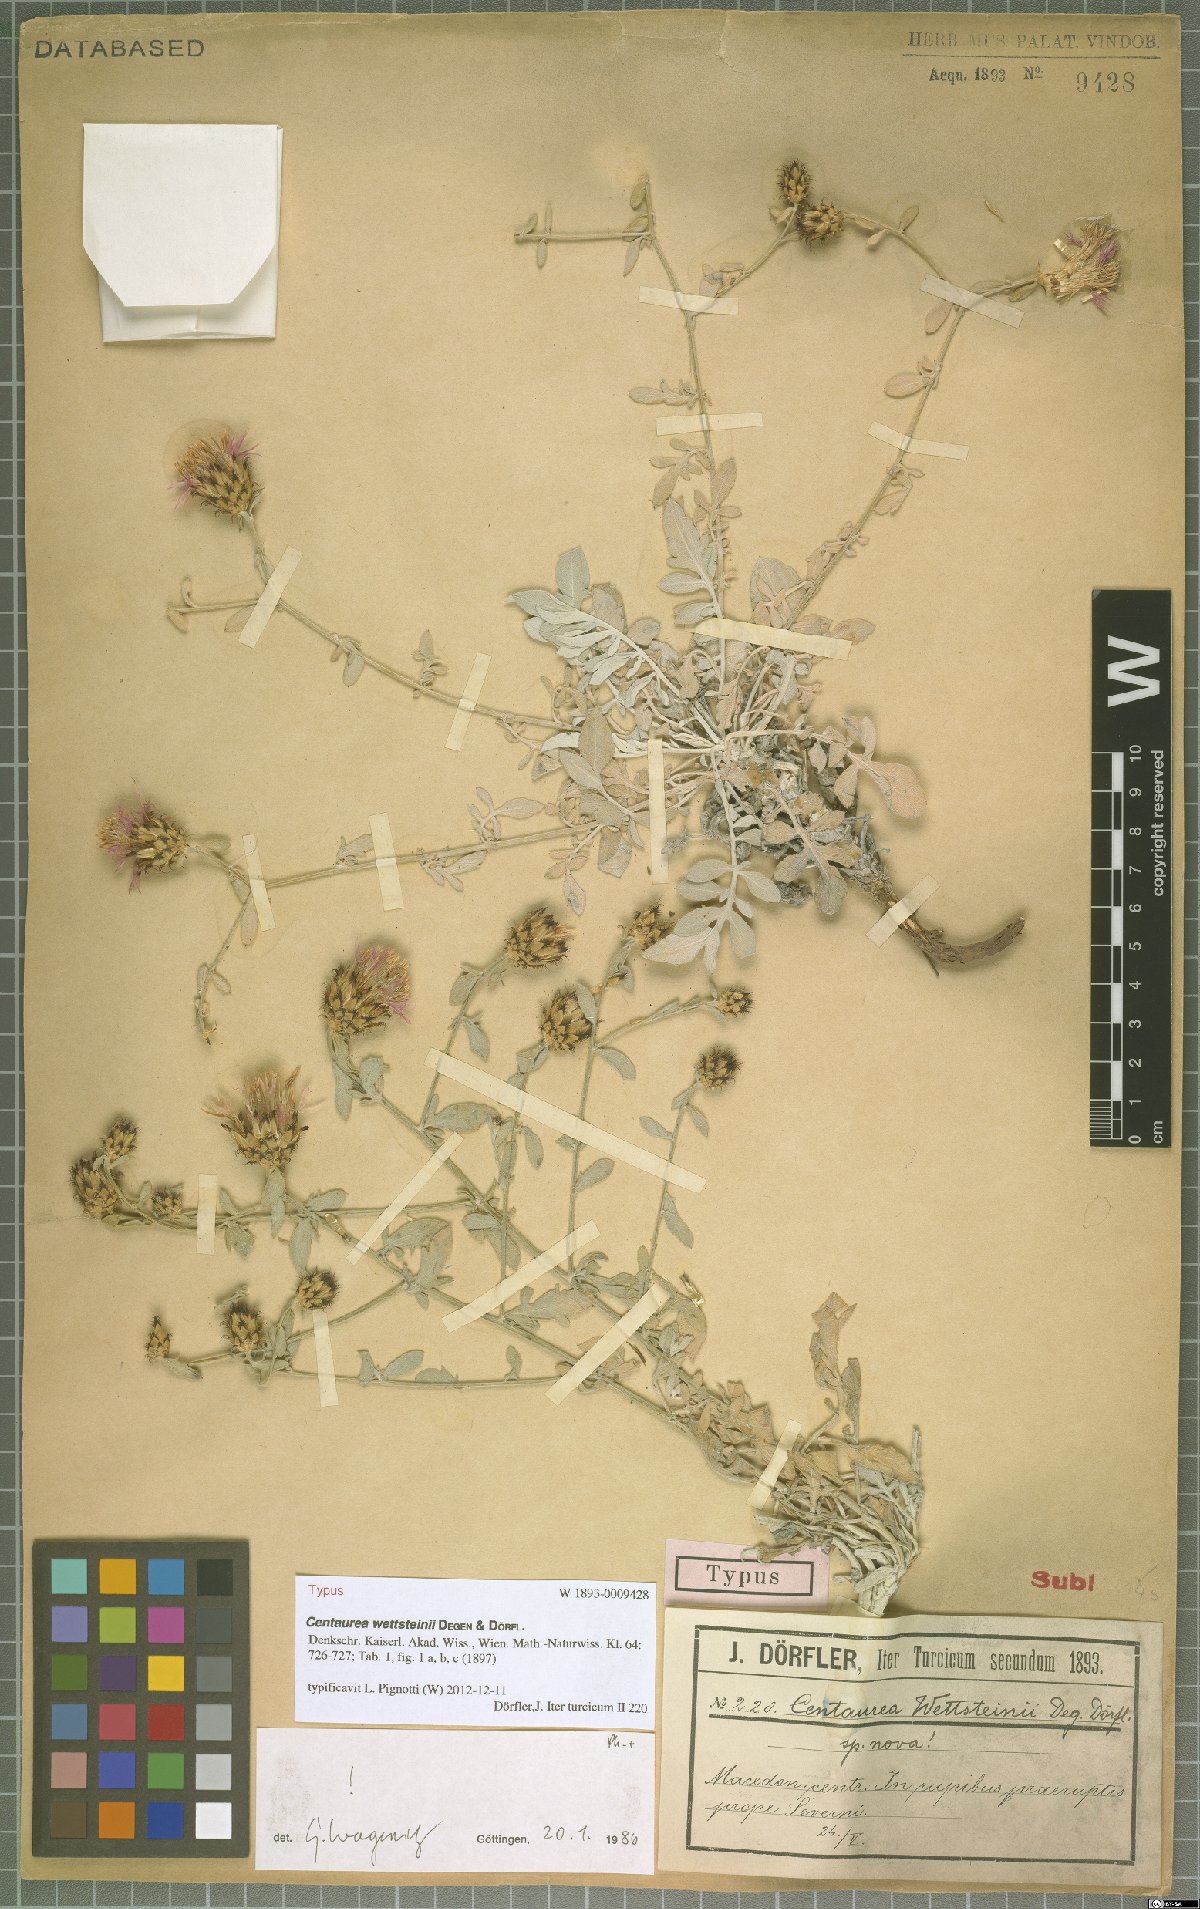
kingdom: Plantae
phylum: Tracheophyta
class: Magnoliopsida
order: Asterales
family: Asteraceae
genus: Centaurea
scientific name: Centaurea wettsteinii
